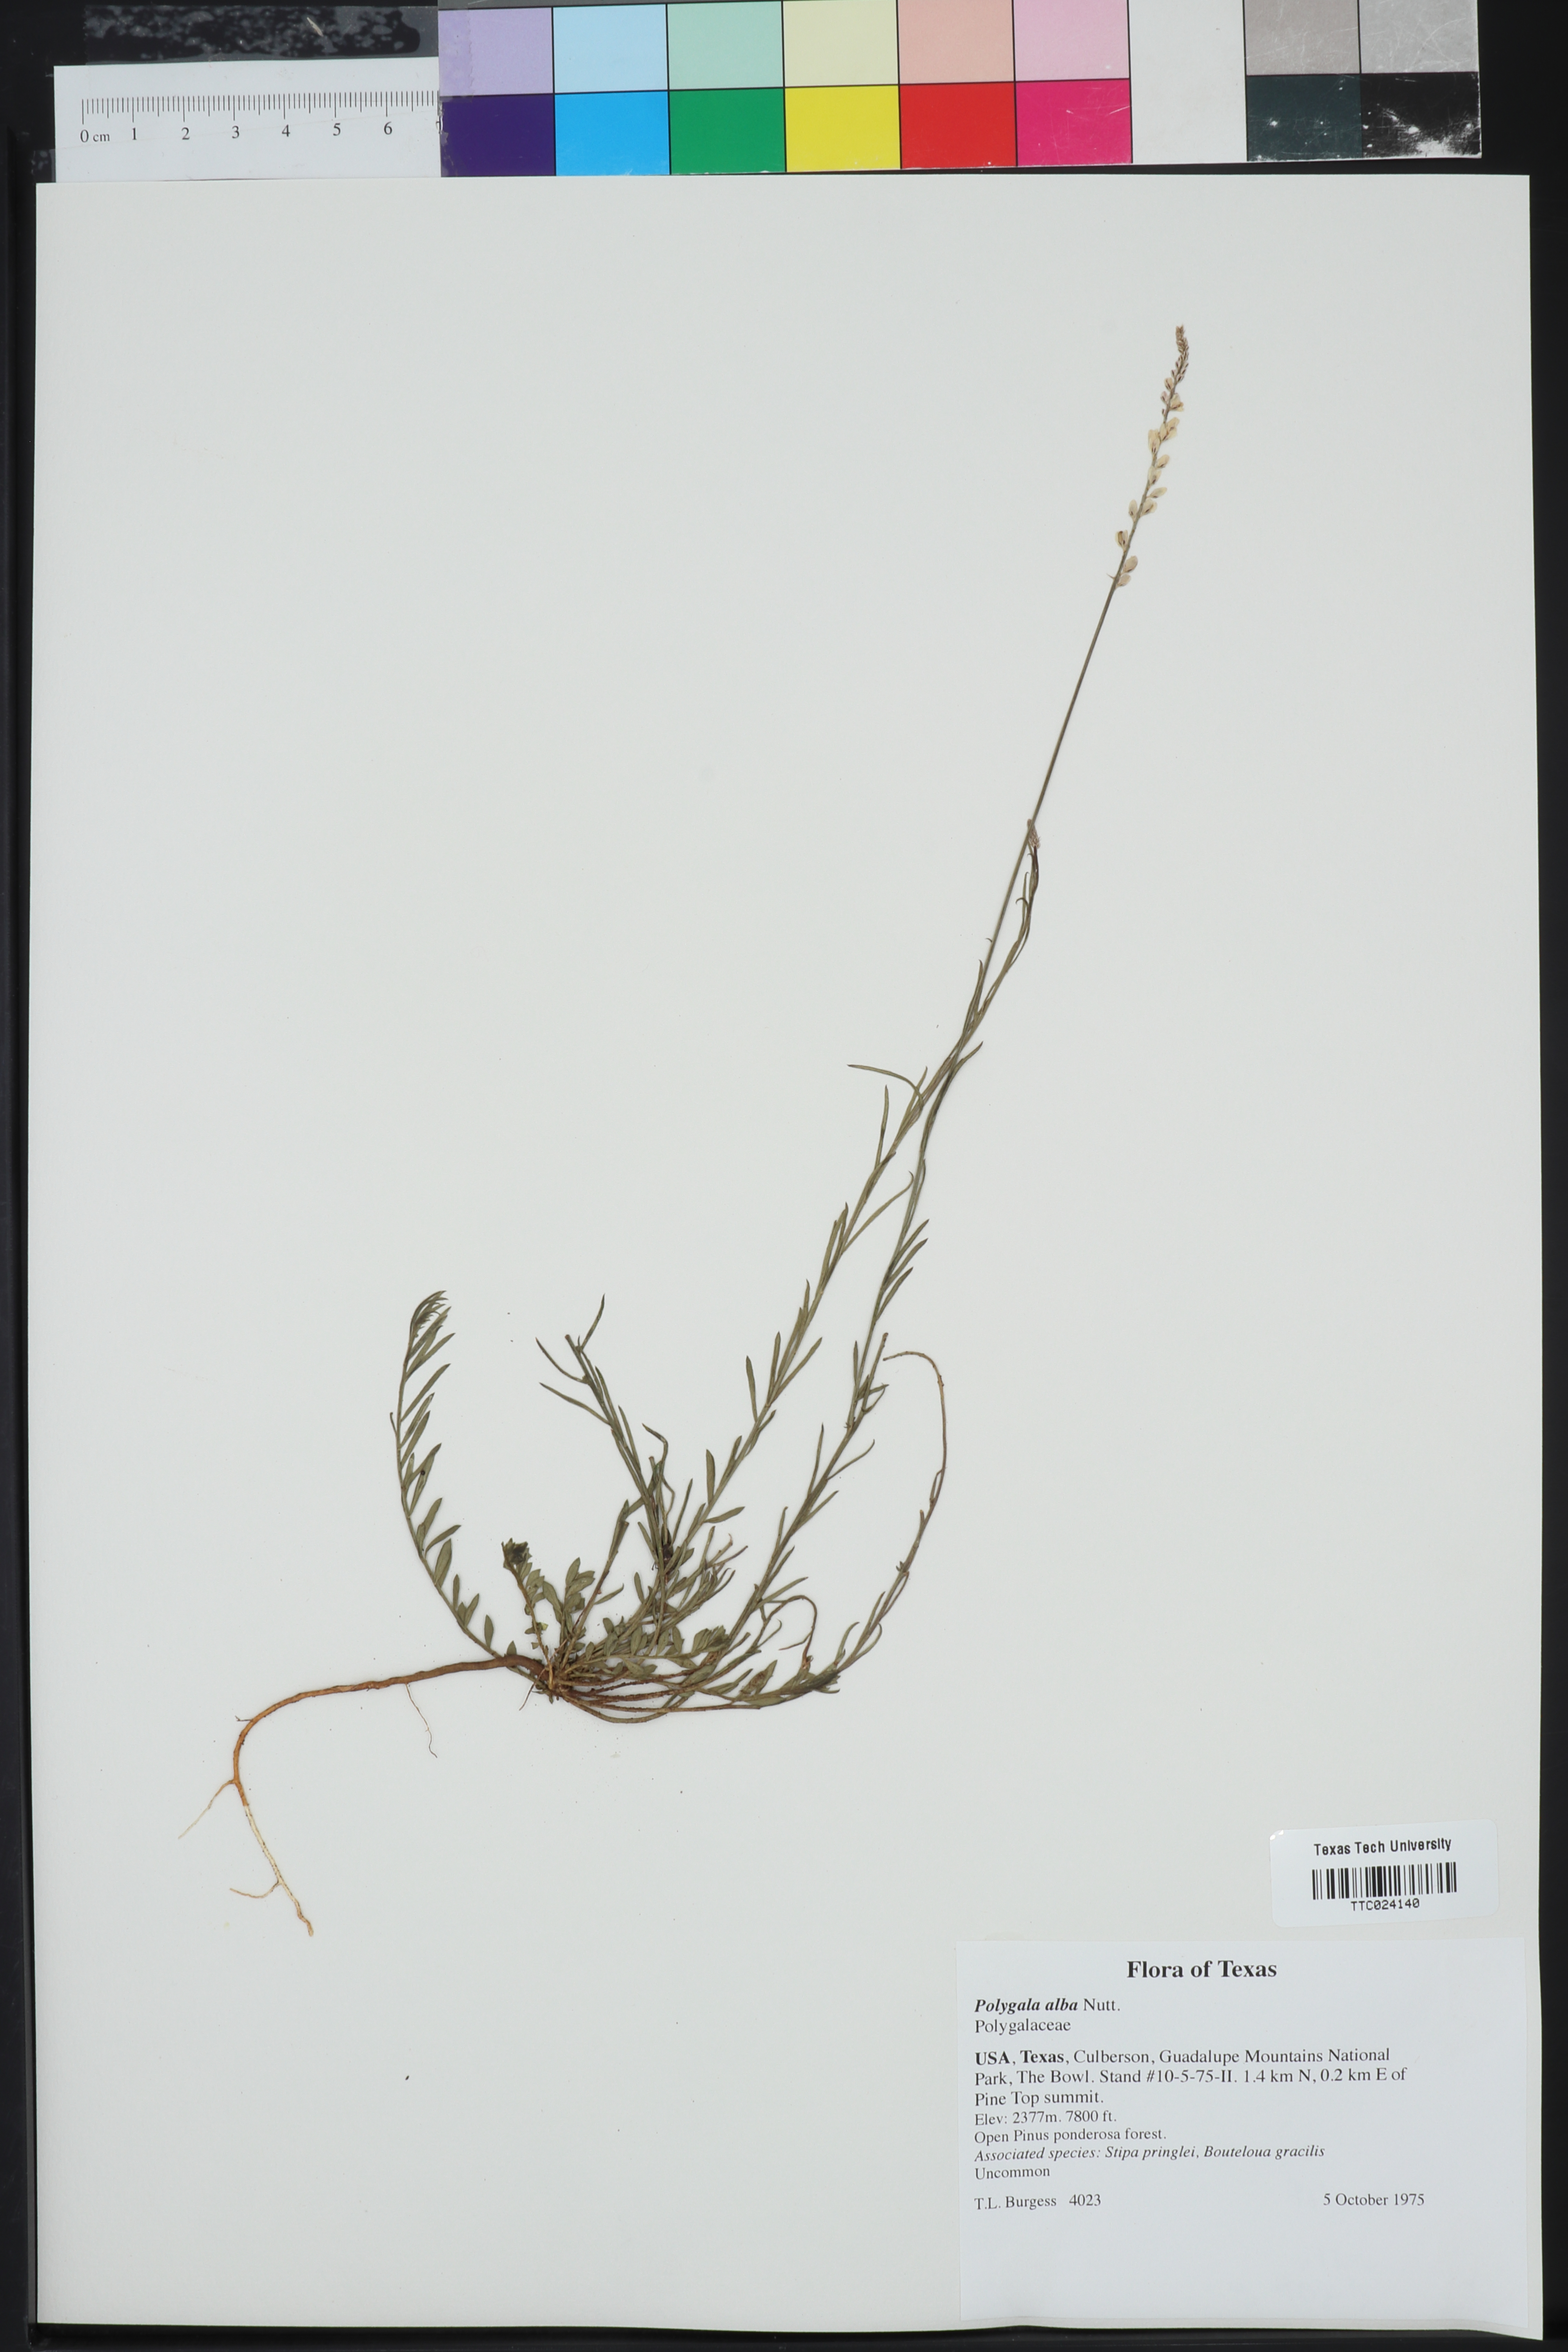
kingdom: Plantae
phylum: Tracheophyta
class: Magnoliopsida
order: Fabales
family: Polygalaceae
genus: Polygala
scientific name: Polygala alba
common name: White milkwort
